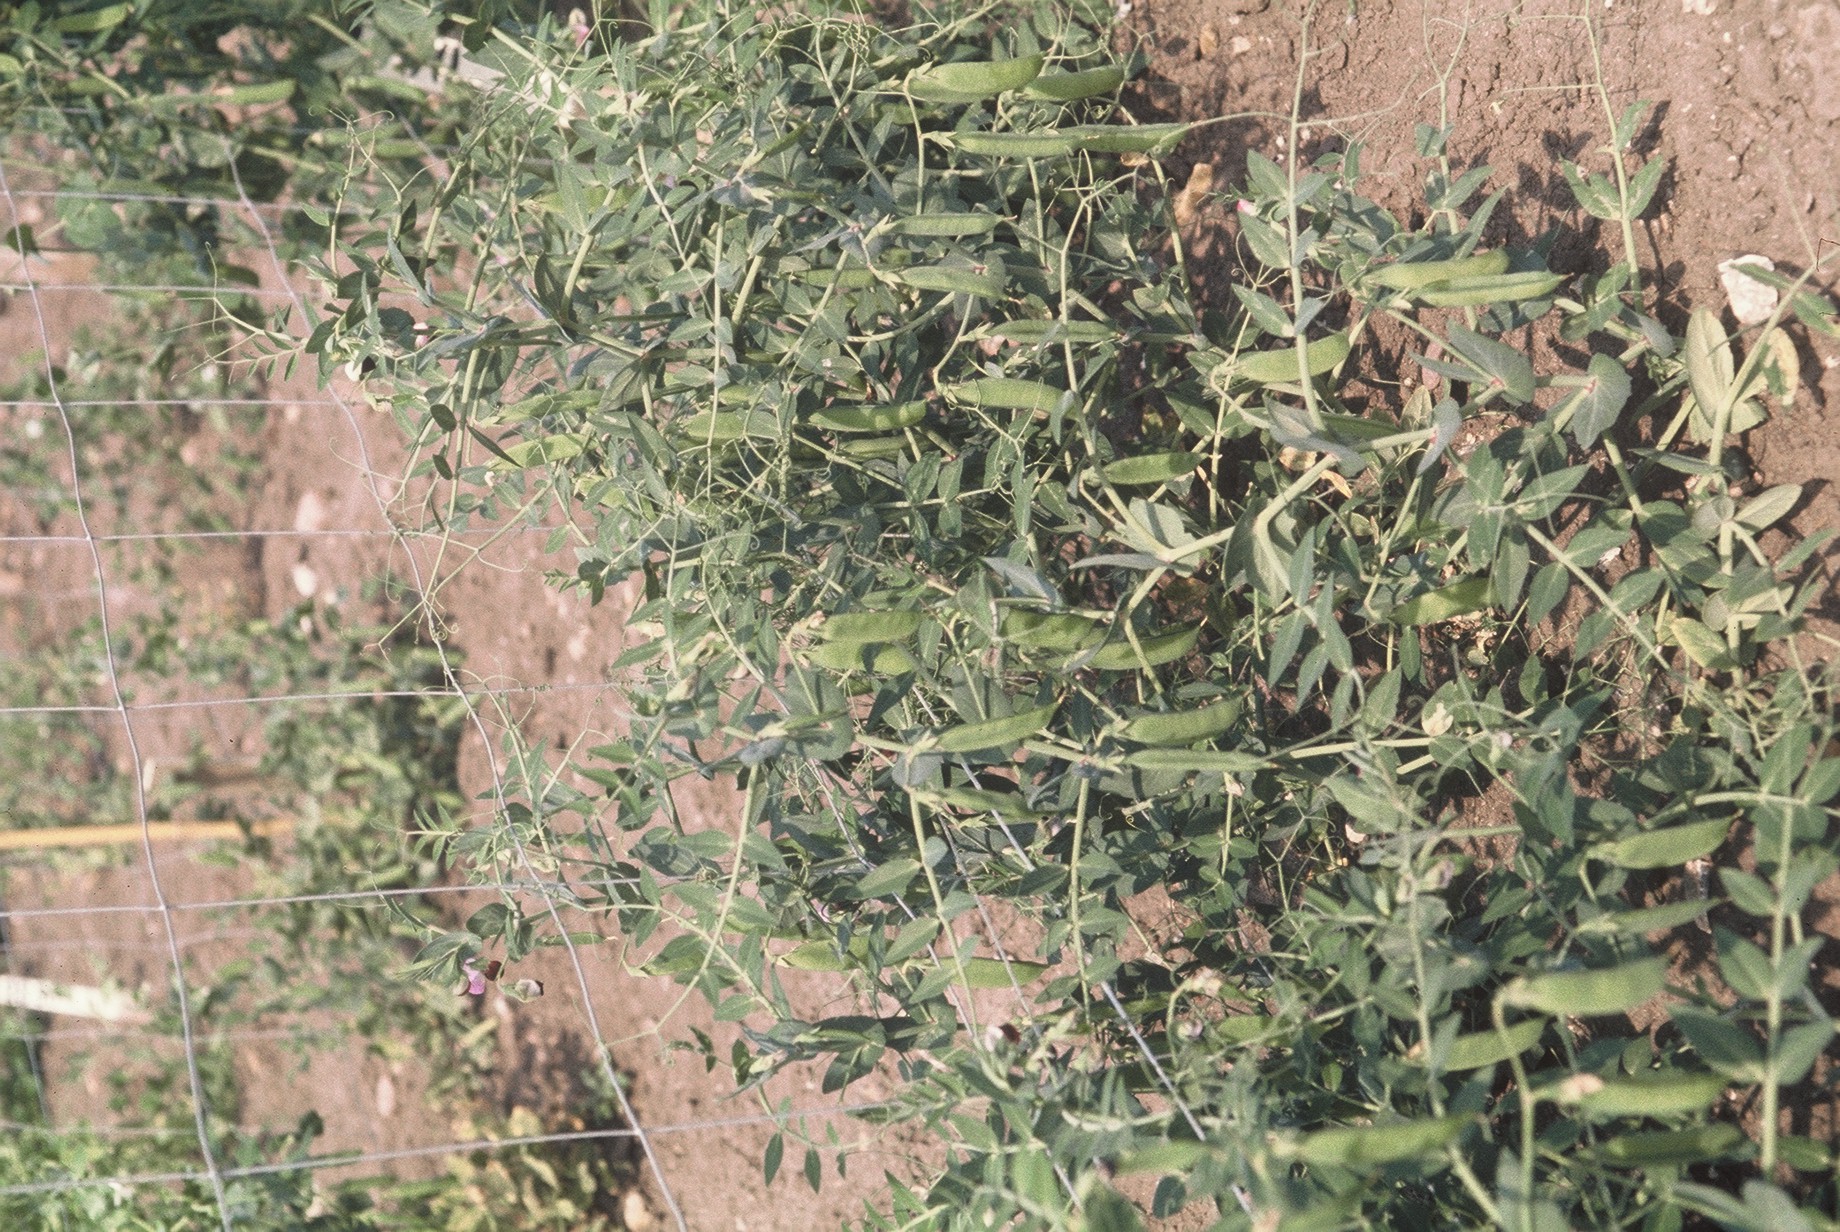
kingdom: Plantae
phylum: Tracheophyta
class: Magnoliopsida
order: Fabales
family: Fabaceae
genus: Lathyrus
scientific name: Lathyrus oleraceus
